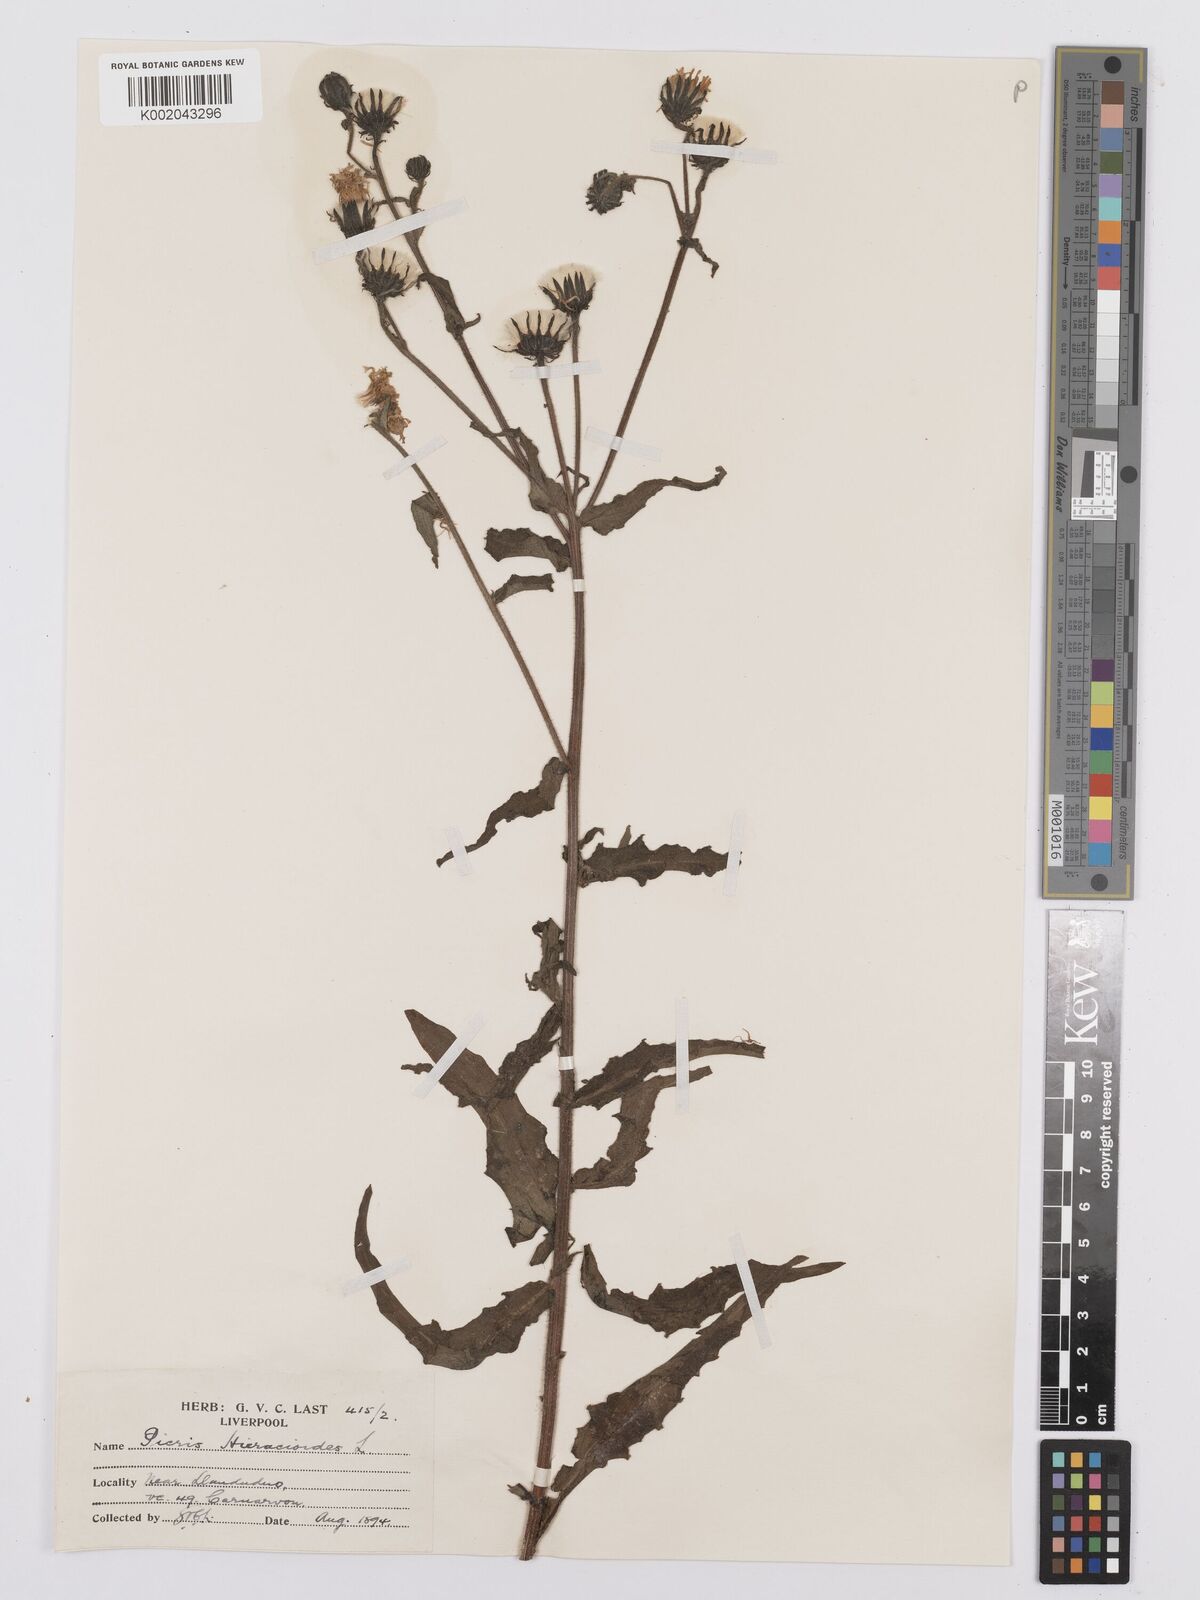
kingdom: Plantae
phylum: Tracheophyta
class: Magnoliopsida
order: Asterales
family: Asteraceae
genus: Picris
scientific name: Picris hieracioides
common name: Hawkweed oxtongue
